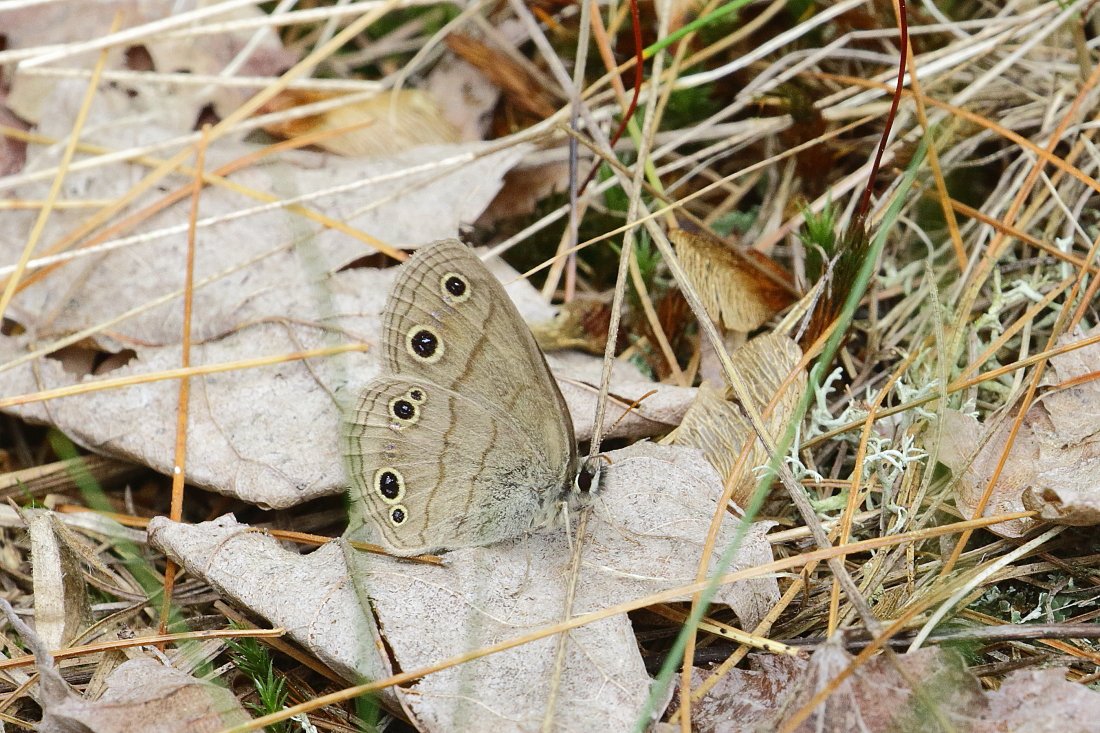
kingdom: Animalia
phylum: Arthropoda
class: Insecta
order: Lepidoptera
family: Nymphalidae
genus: Euptychia
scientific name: Euptychia cymela
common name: Little Wood Satyr
